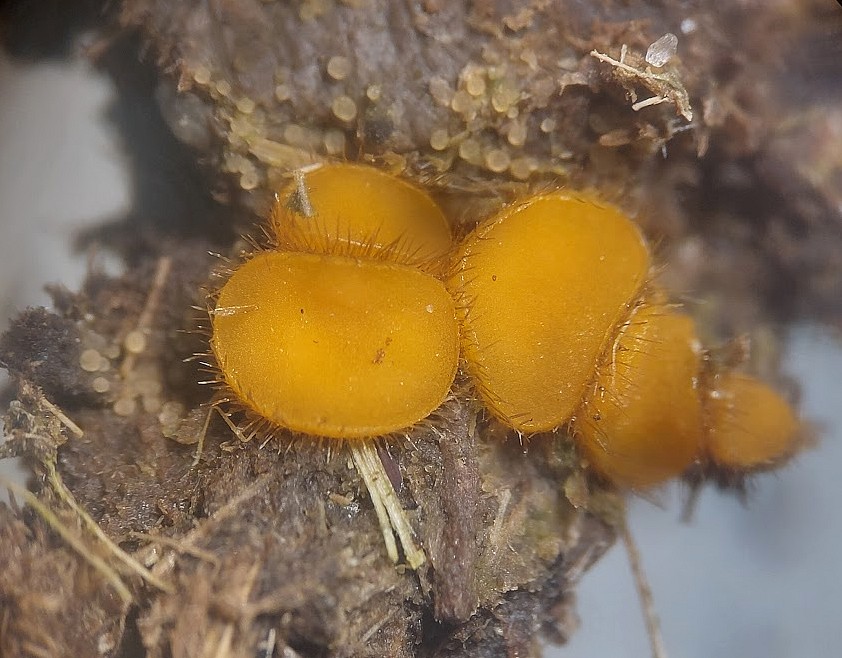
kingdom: Fungi
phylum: Ascomycota
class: Pezizomycetes
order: Pezizales
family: Pyronemataceae
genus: Cheilymenia
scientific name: Cheilymenia fimicola
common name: møg-hårbæger
